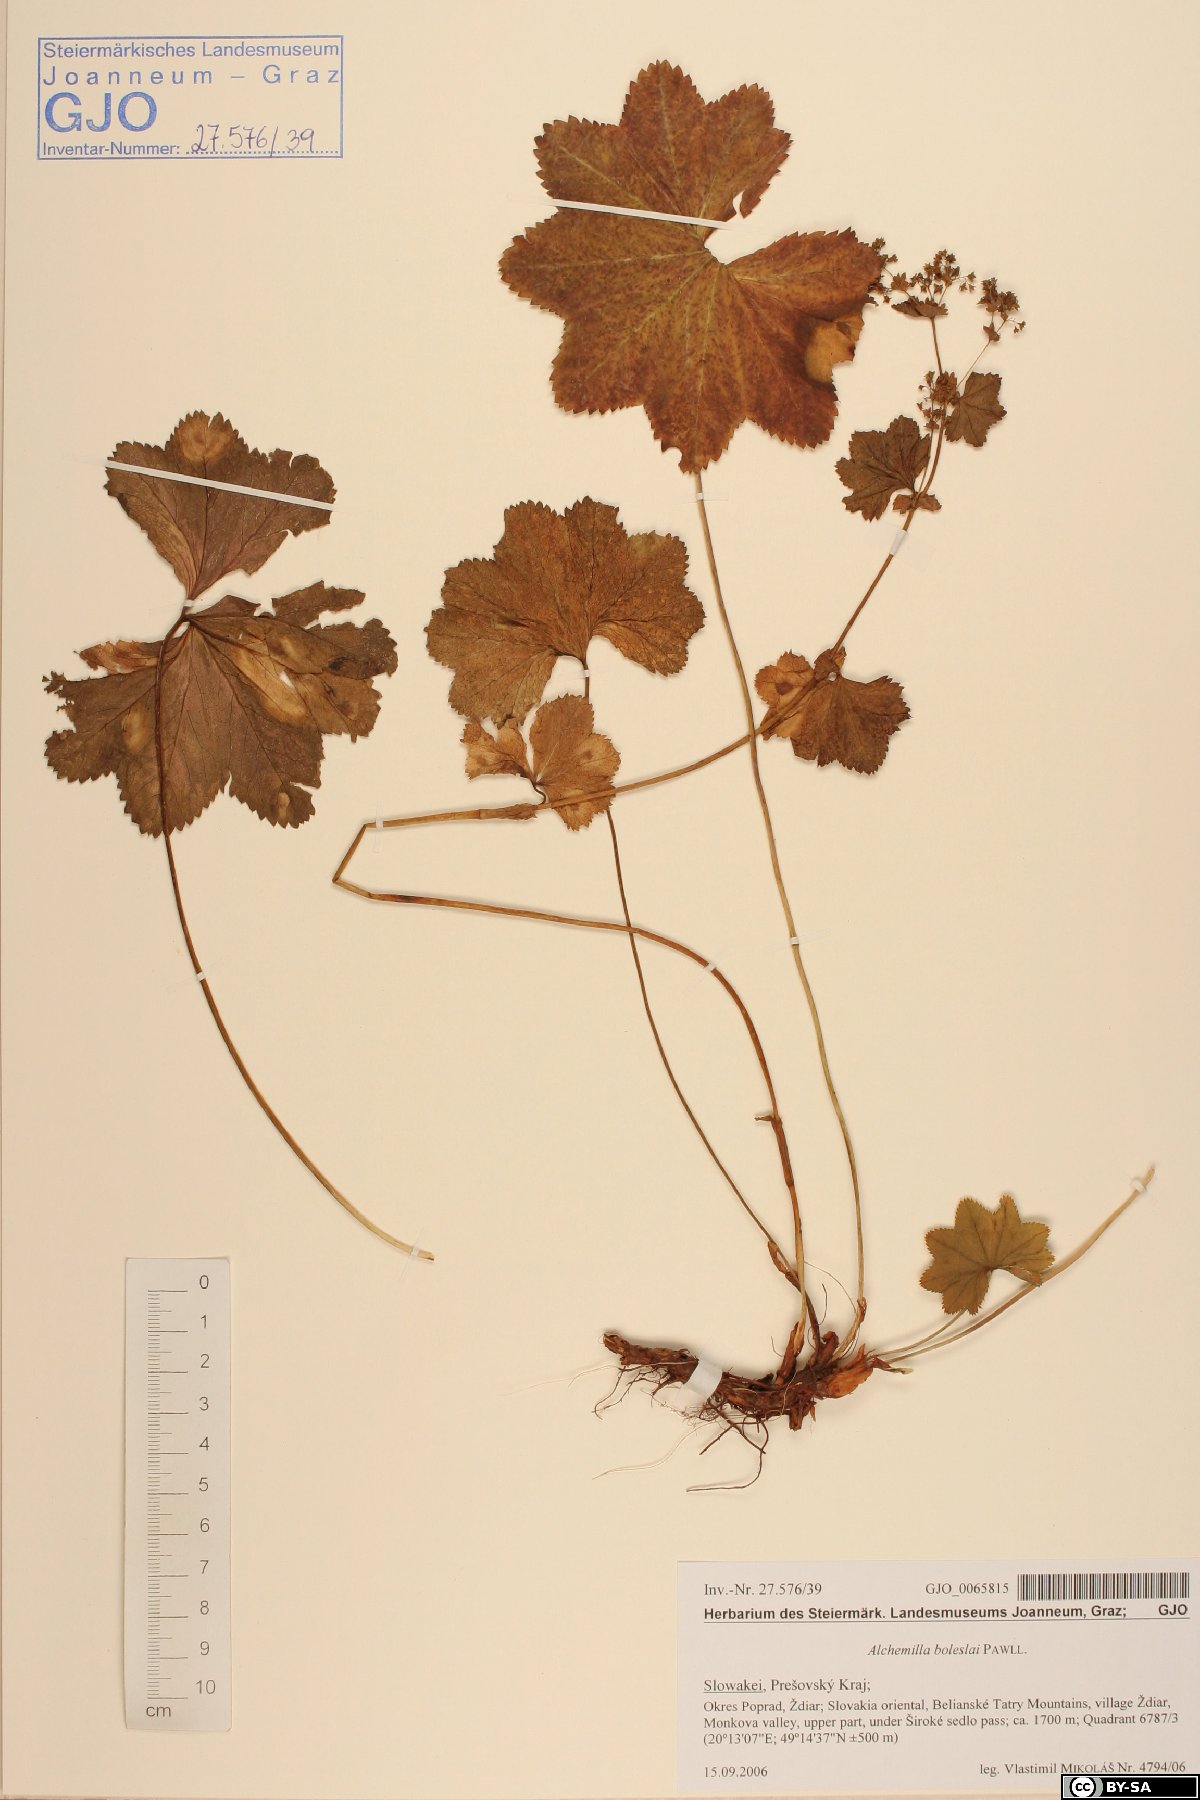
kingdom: Plantae
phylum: Tracheophyta
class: Magnoliopsida
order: Rosales
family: Rosaceae
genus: Alchemilla
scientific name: Alchemilla boleslai
